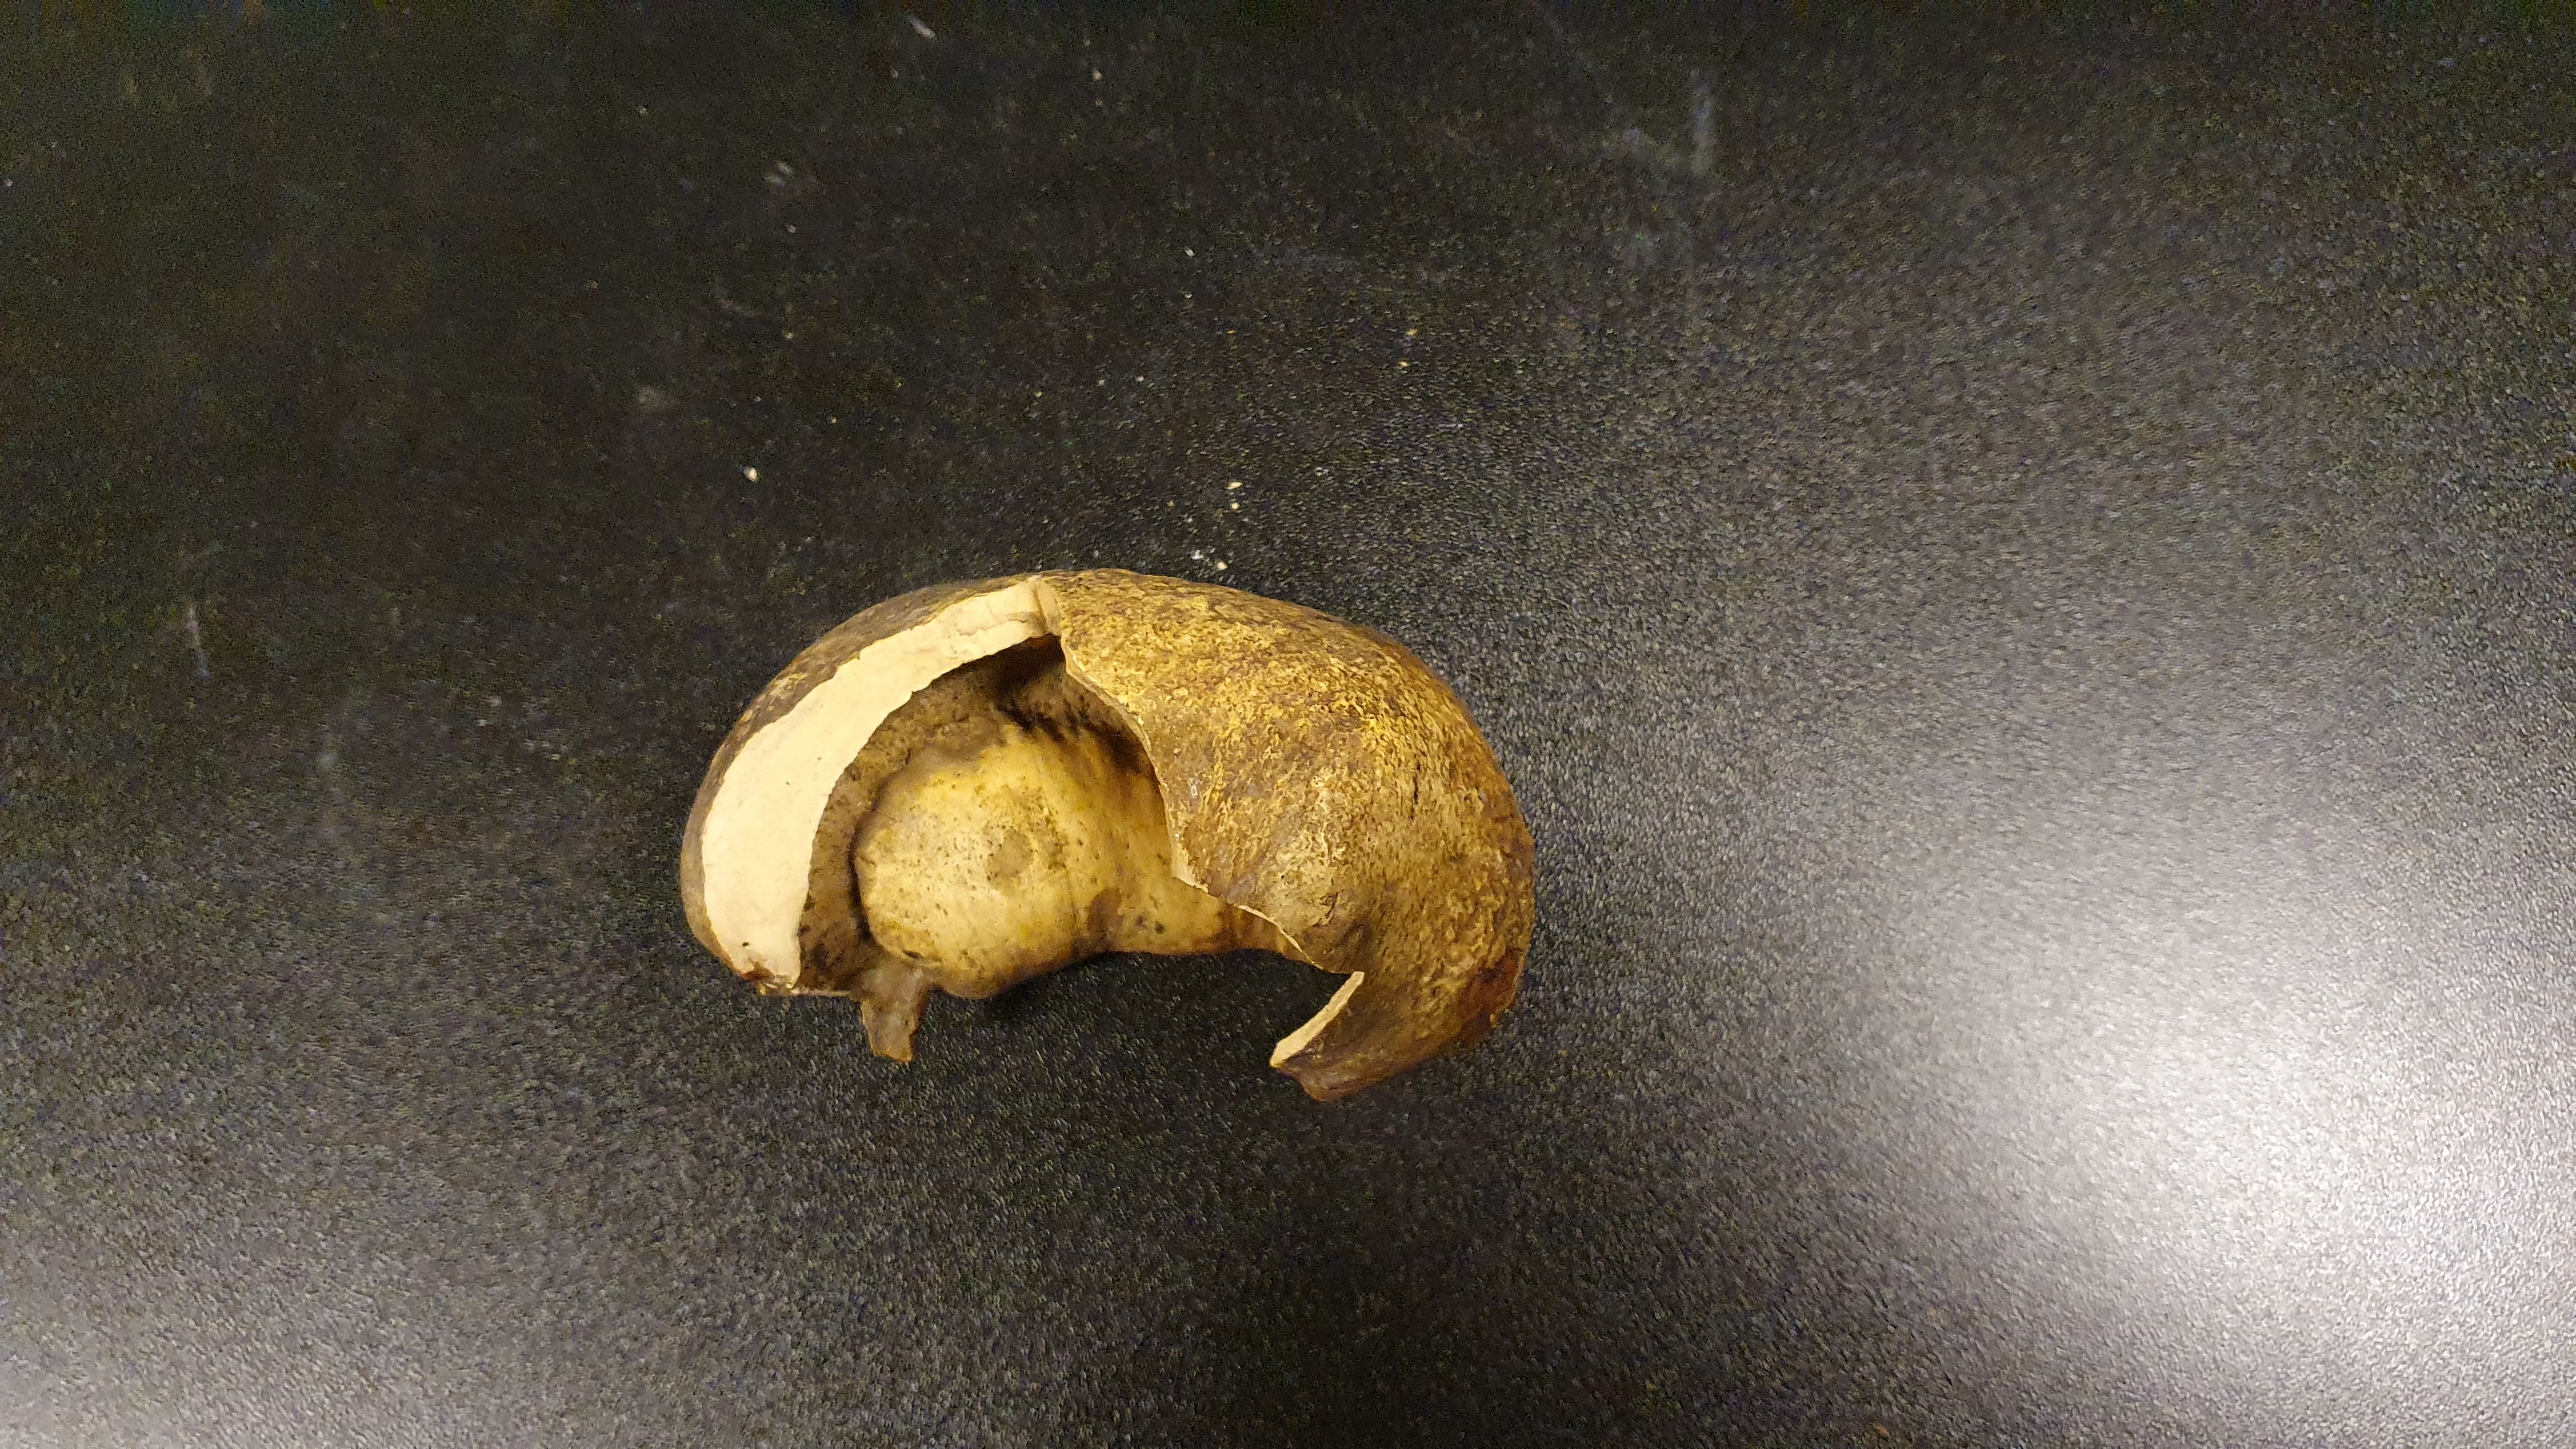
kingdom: Animalia
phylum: Chordata
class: Mammalia
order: Cetacea
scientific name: Cetacea
